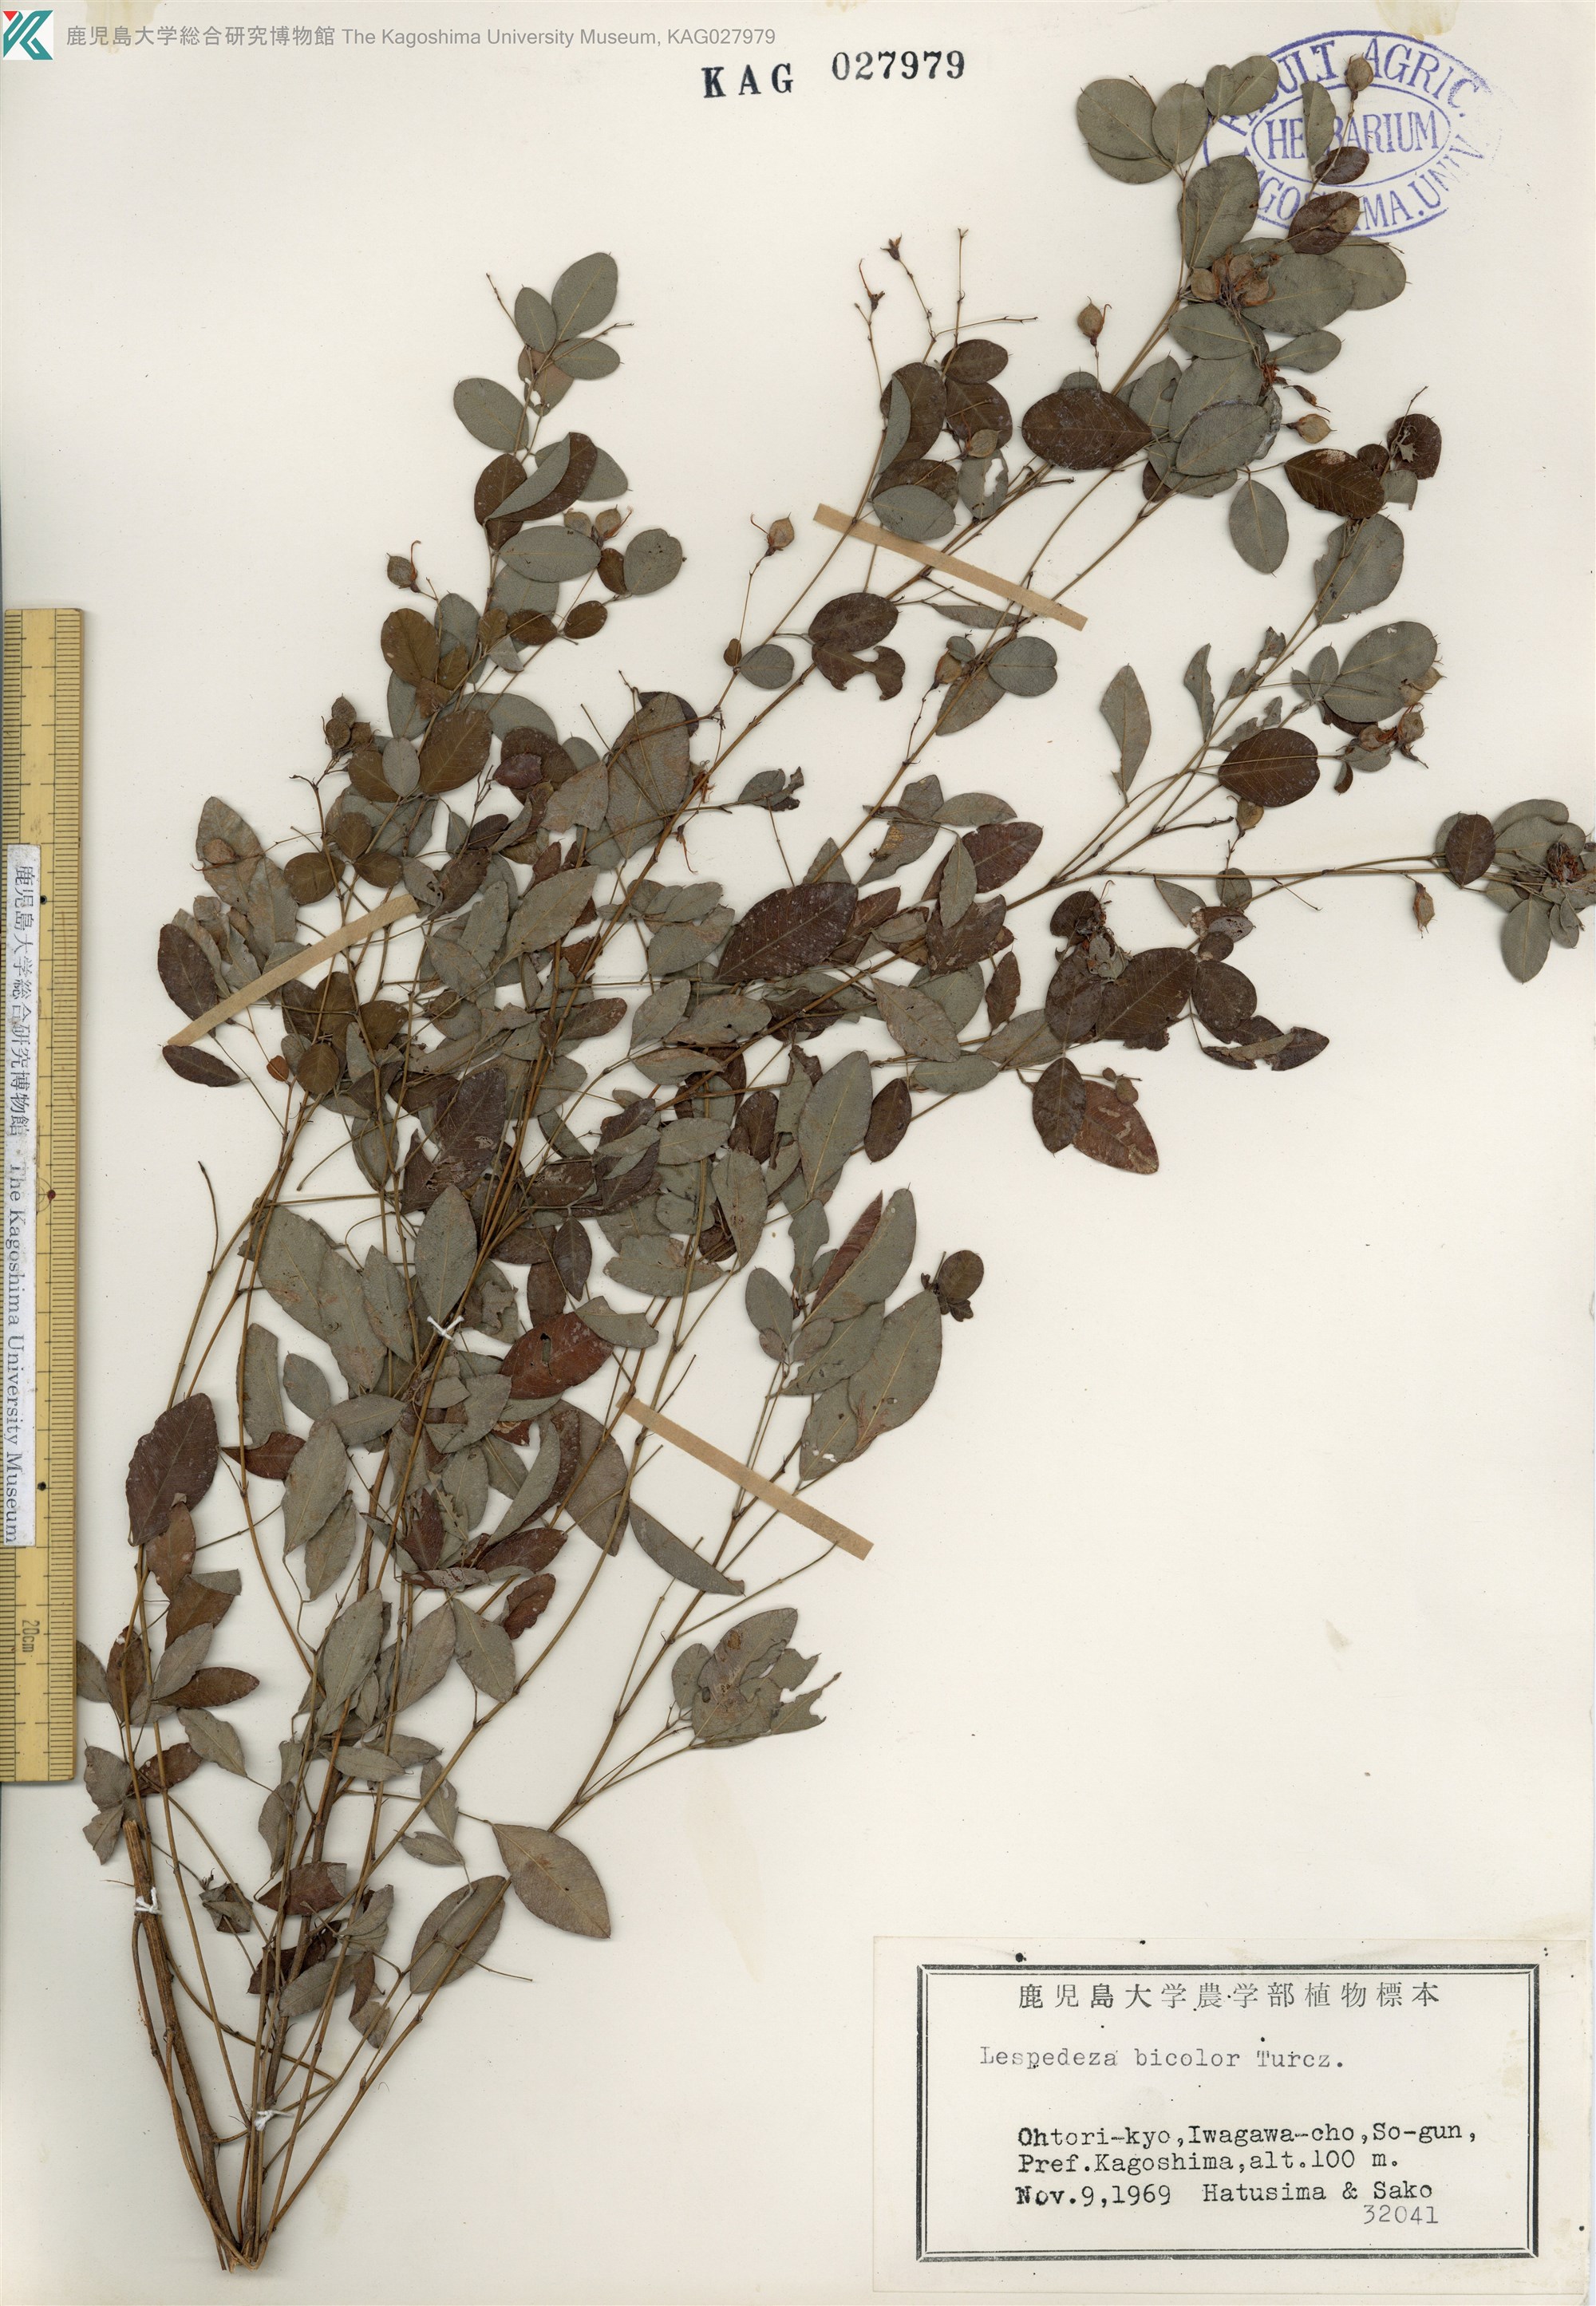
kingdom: Plantae
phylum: Tracheophyta
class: Magnoliopsida
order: Fabales
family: Fabaceae
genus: Lespedeza
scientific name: Lespedeza bicolor
